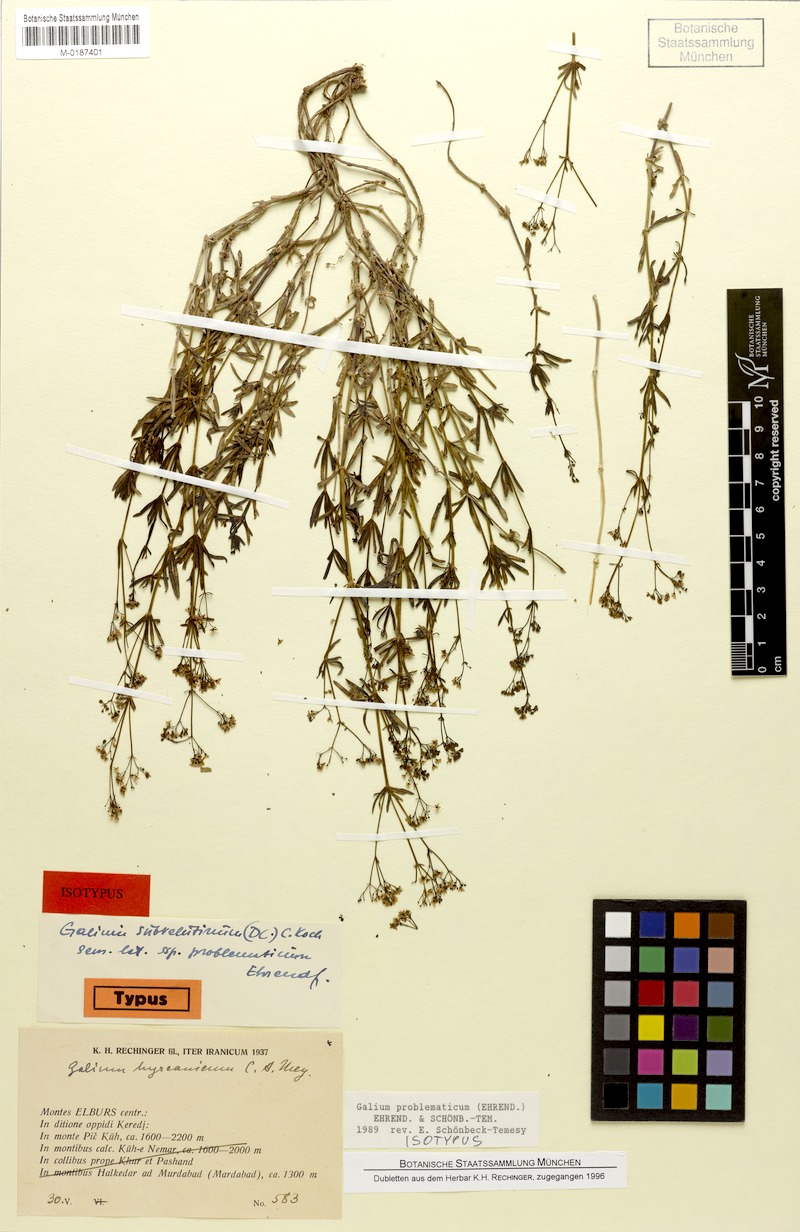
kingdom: Plantae
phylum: Tracheophyta
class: Magnoliopsida
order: Gentianales
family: Rubiaceae
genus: Galium
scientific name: Galium problematicum
